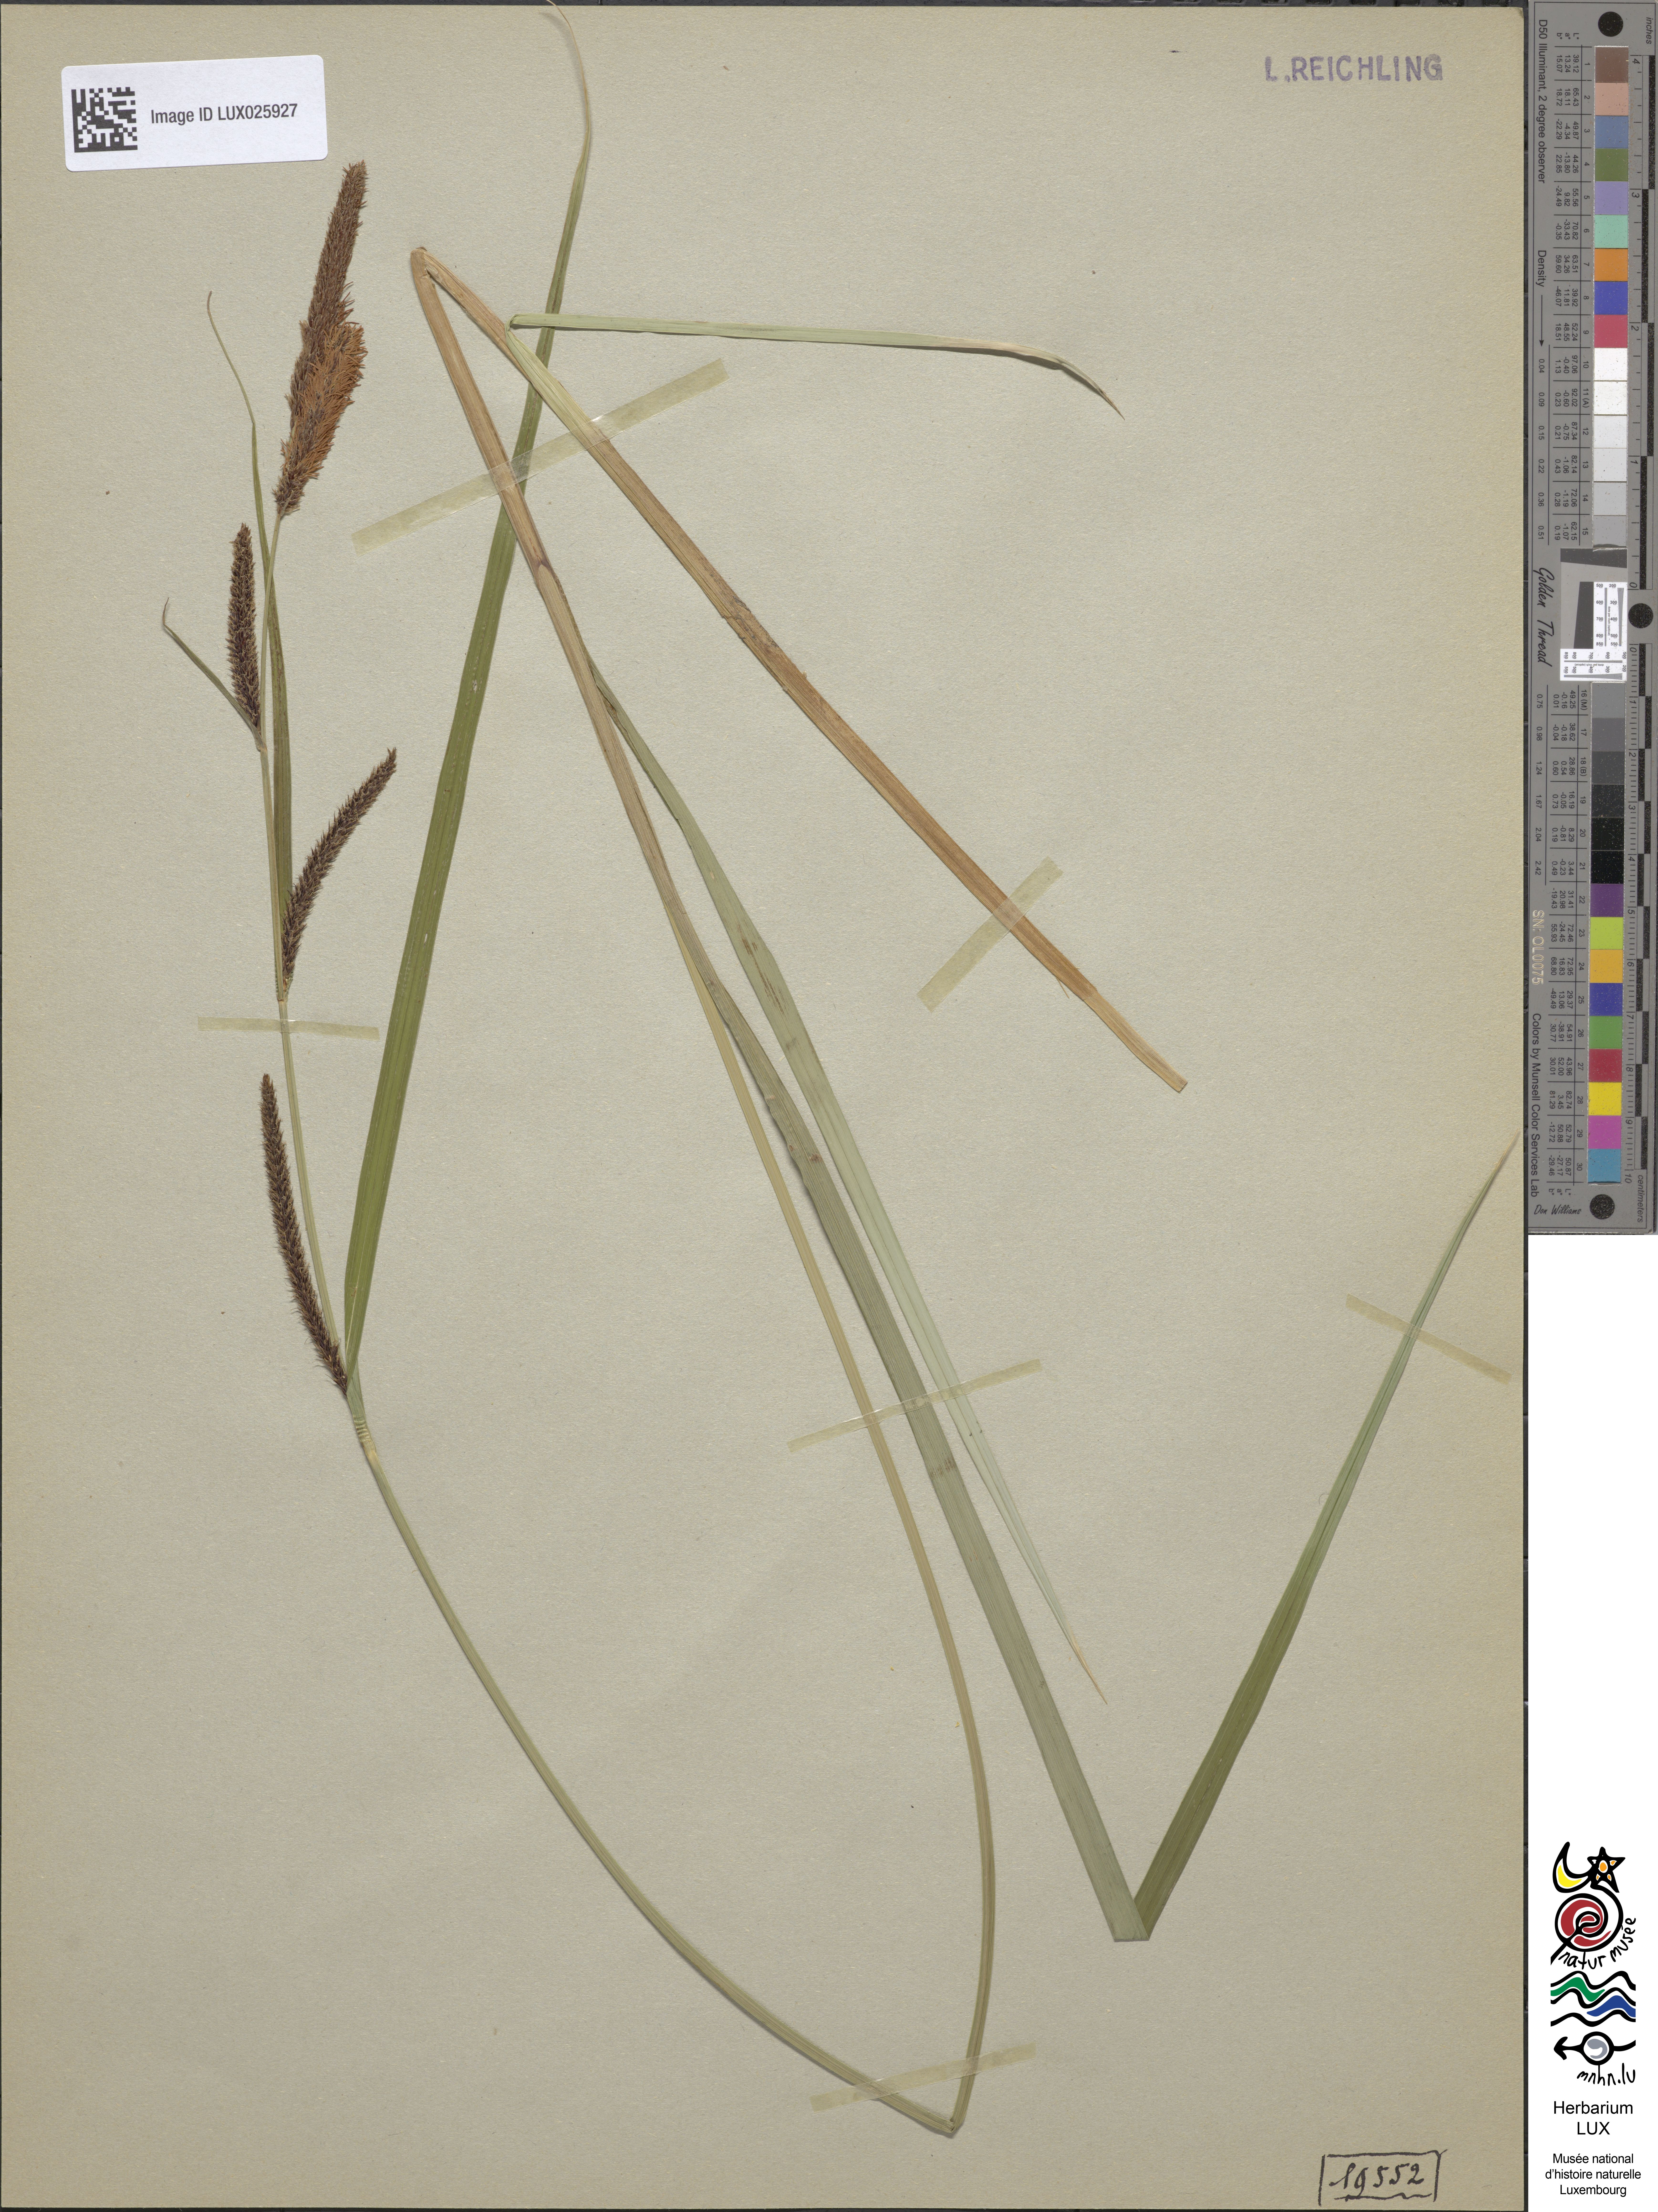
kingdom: Plantae
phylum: Tracheophyta
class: Liliopsida
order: Poales
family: Cyperaceae
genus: Carex
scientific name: Carex acutiformis
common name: Lesser pond-sedge
